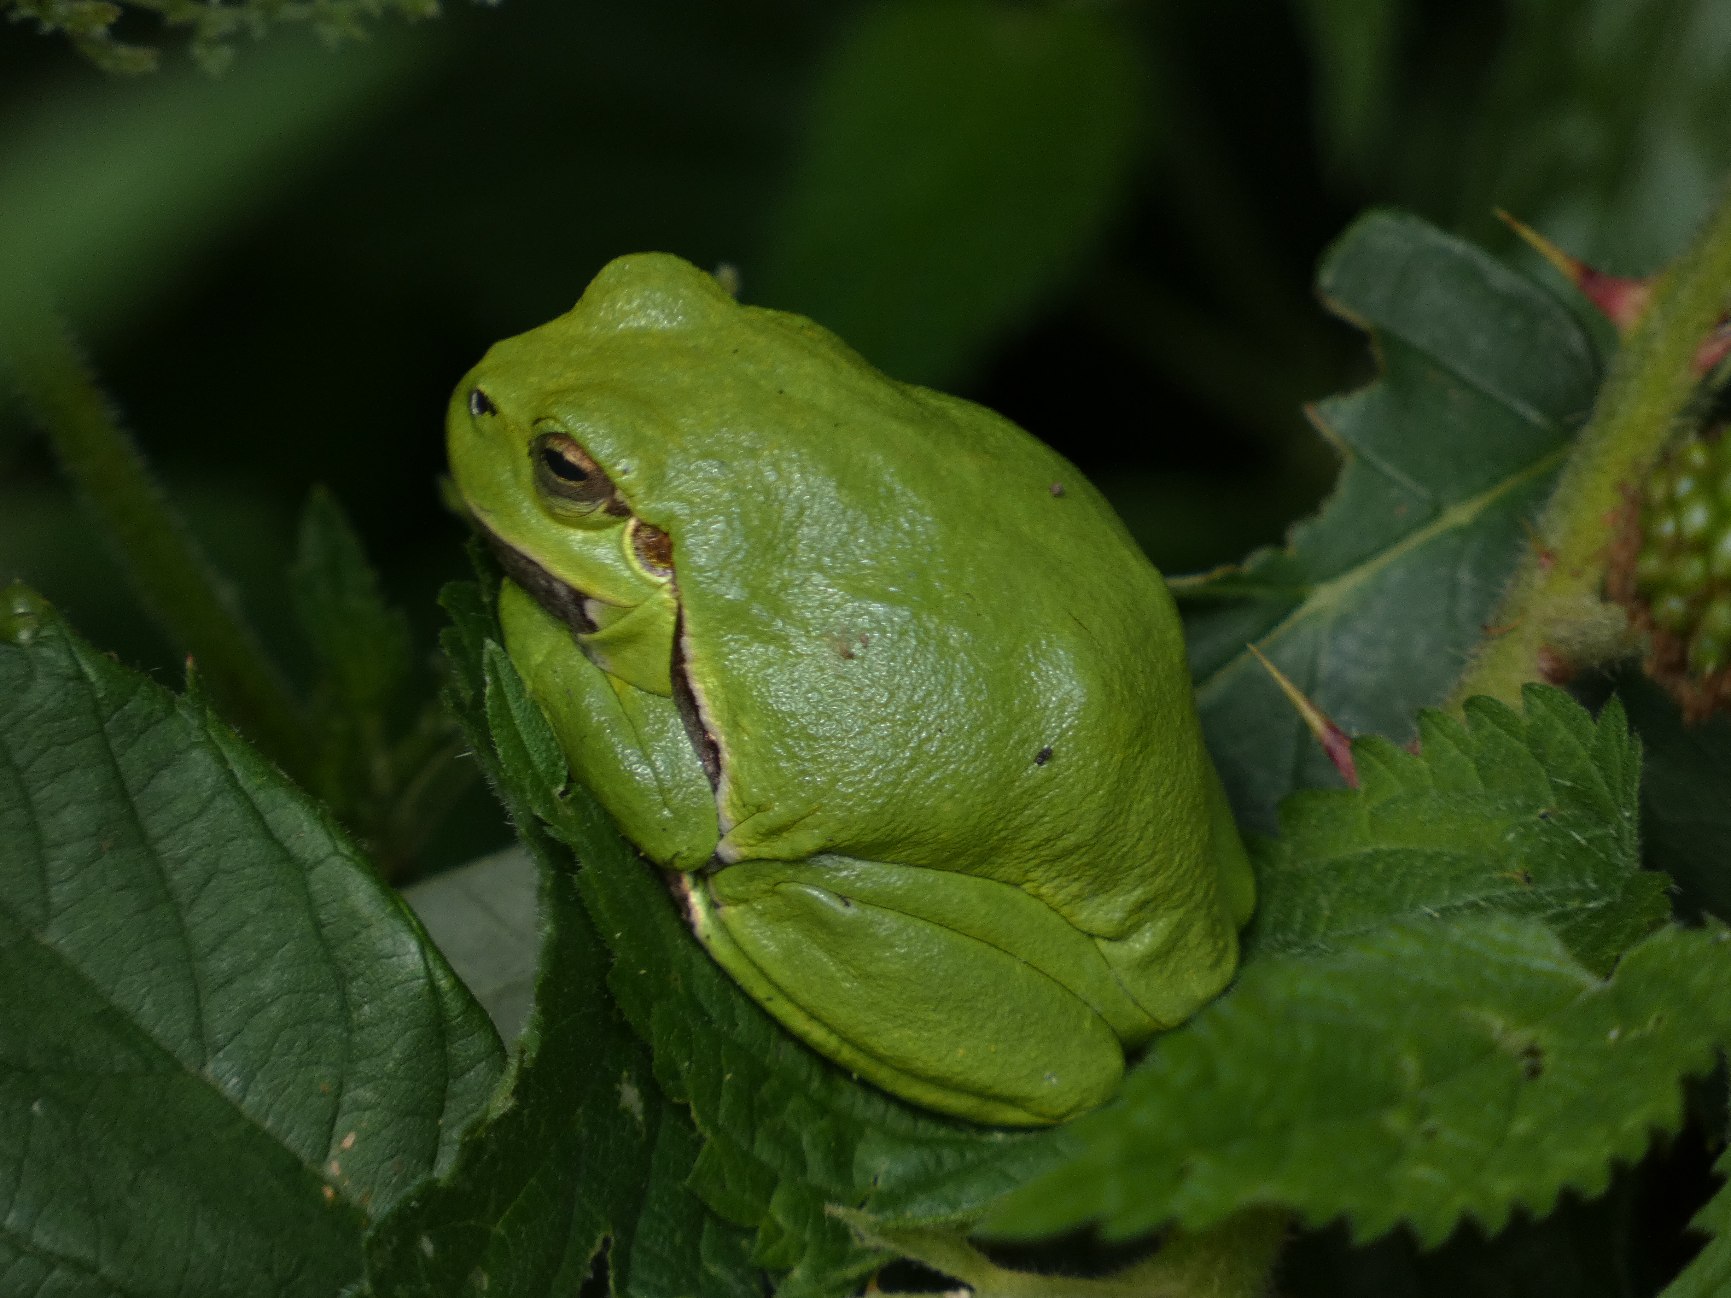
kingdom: Animalia
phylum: Chordata
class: Amphibia
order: Anura
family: Hylidae
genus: Hyla
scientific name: Hyla arborea
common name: Løvfrø
